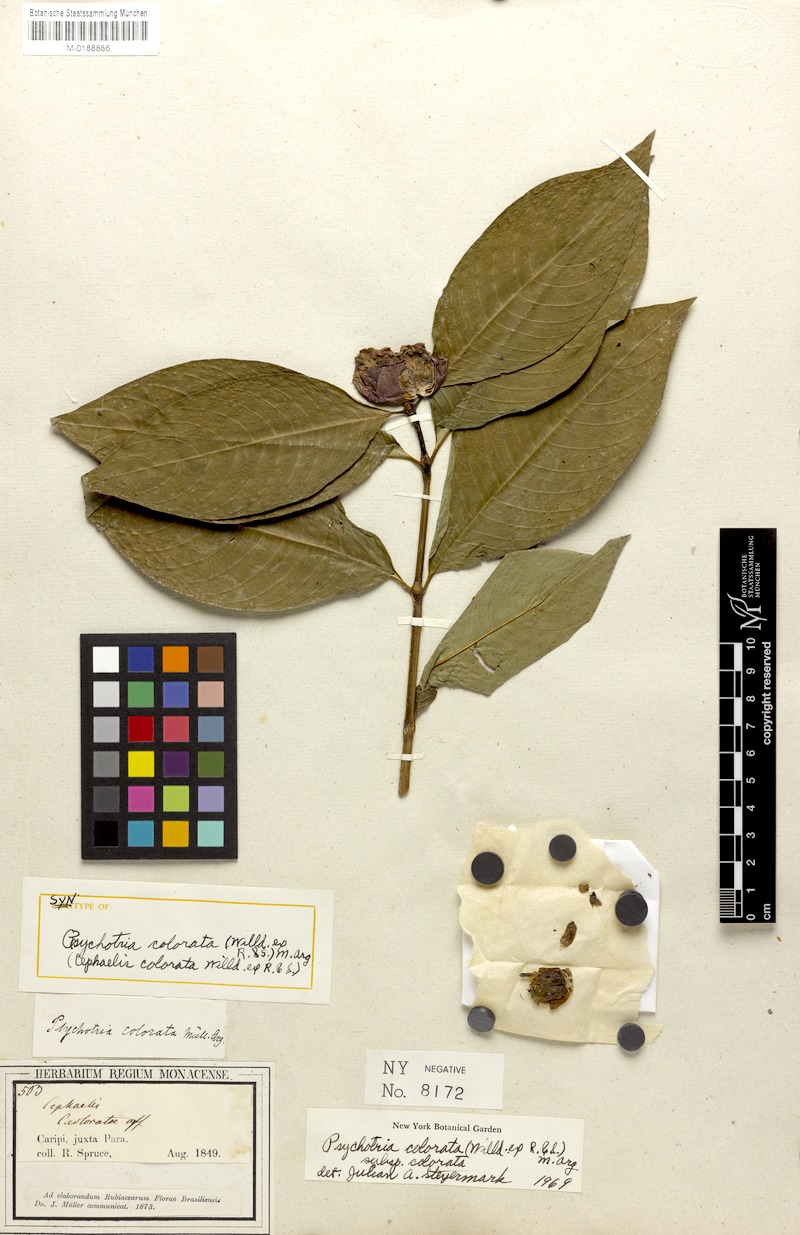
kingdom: Plantae
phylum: Tracheophyta
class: Magnoliopsida
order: Gentianales
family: Rubiaceae
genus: Palicourea
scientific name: Palicourea colorata
